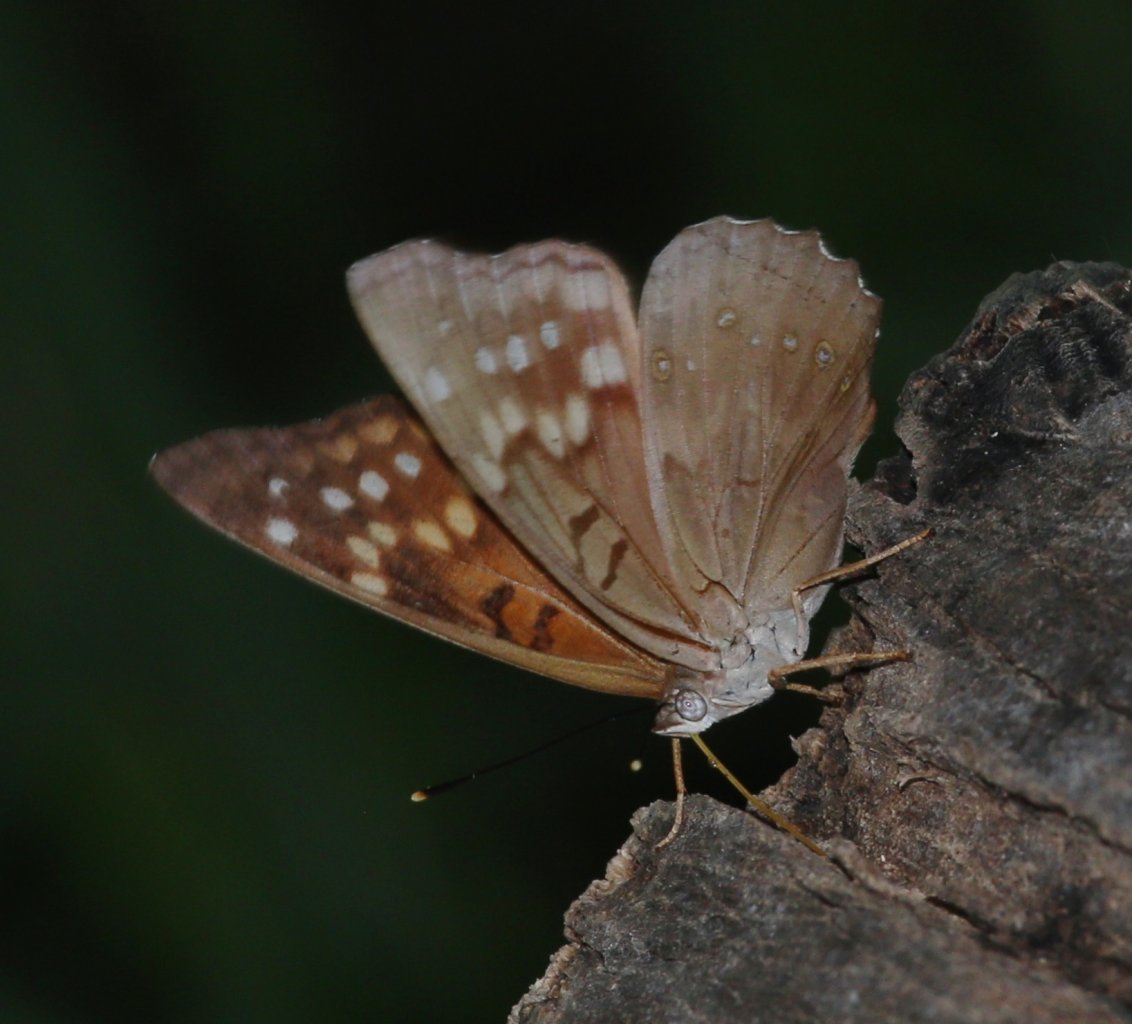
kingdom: Animalia
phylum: Arthropoda
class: Insecta
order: Lepidoptera
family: Nymphalidae
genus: Asterocampa
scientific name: Asterocampa clyton
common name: Tawny Emperor
